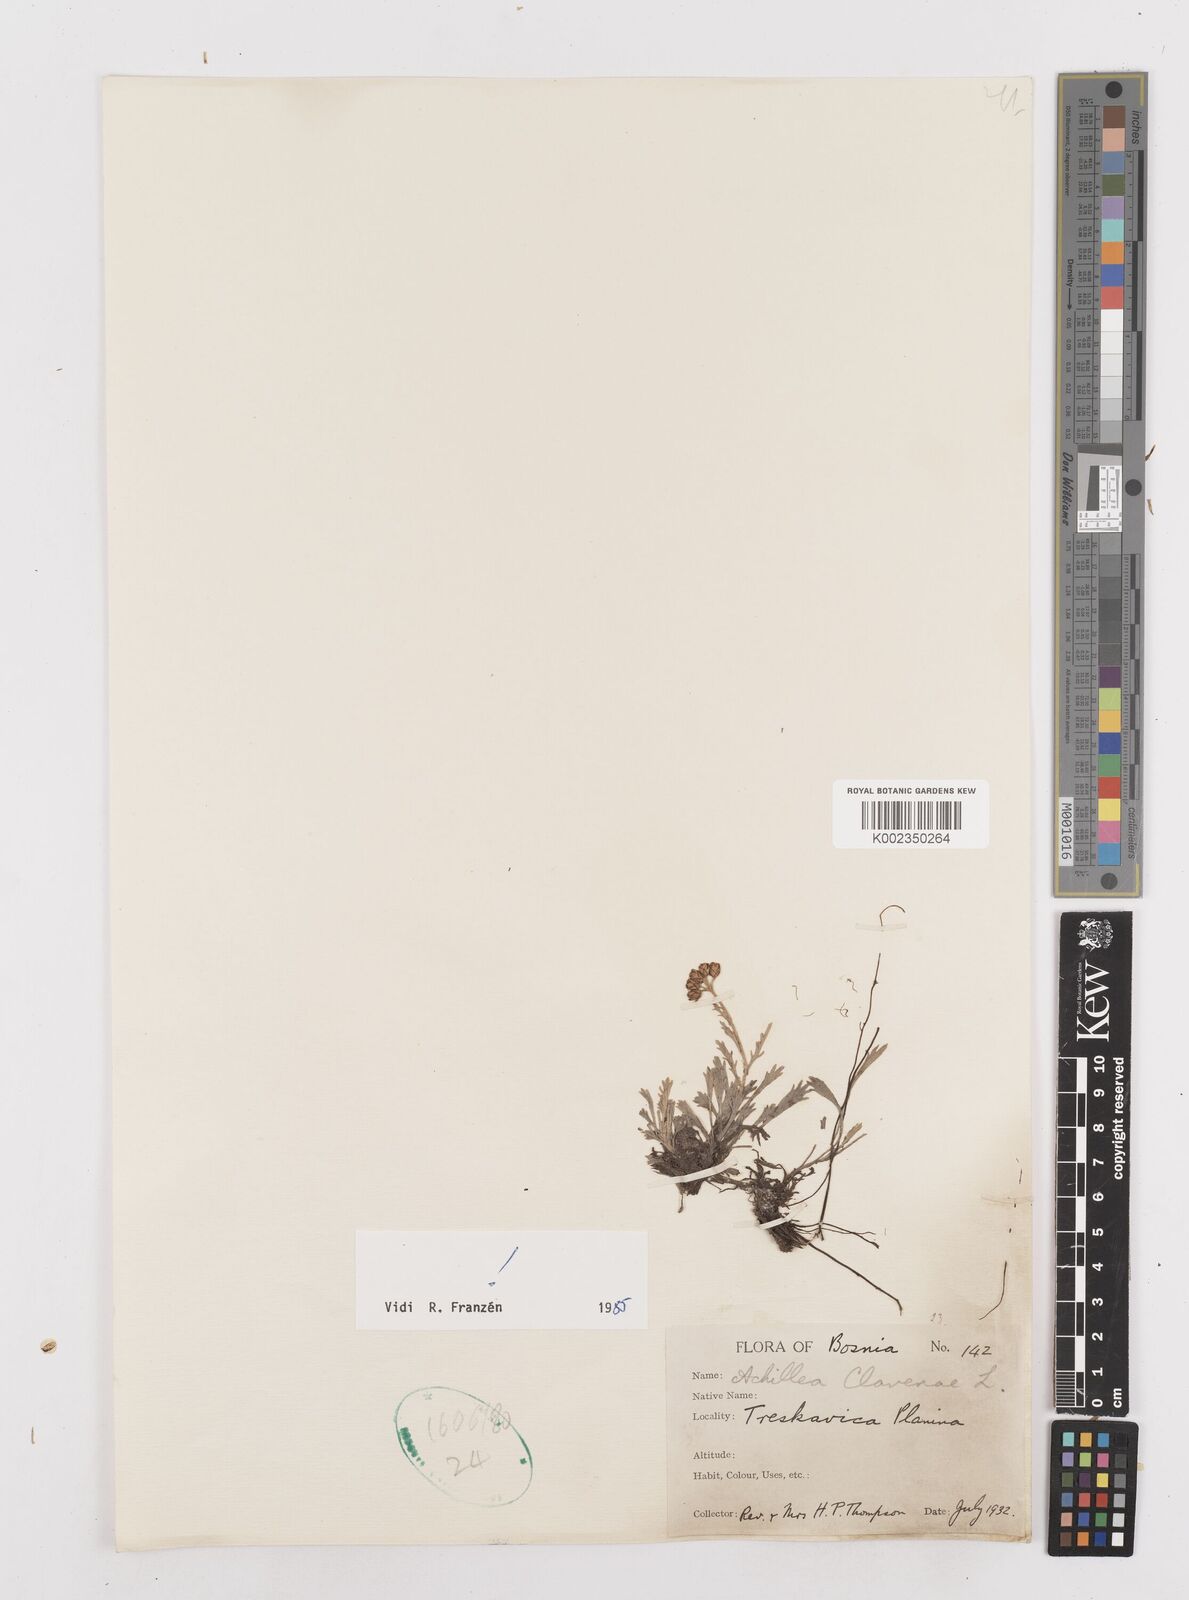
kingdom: Plantae
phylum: Tracheophyta
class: Magnoliopsida
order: Asterales
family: Asteraceae
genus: Achillea
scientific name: Achillea clavennae
